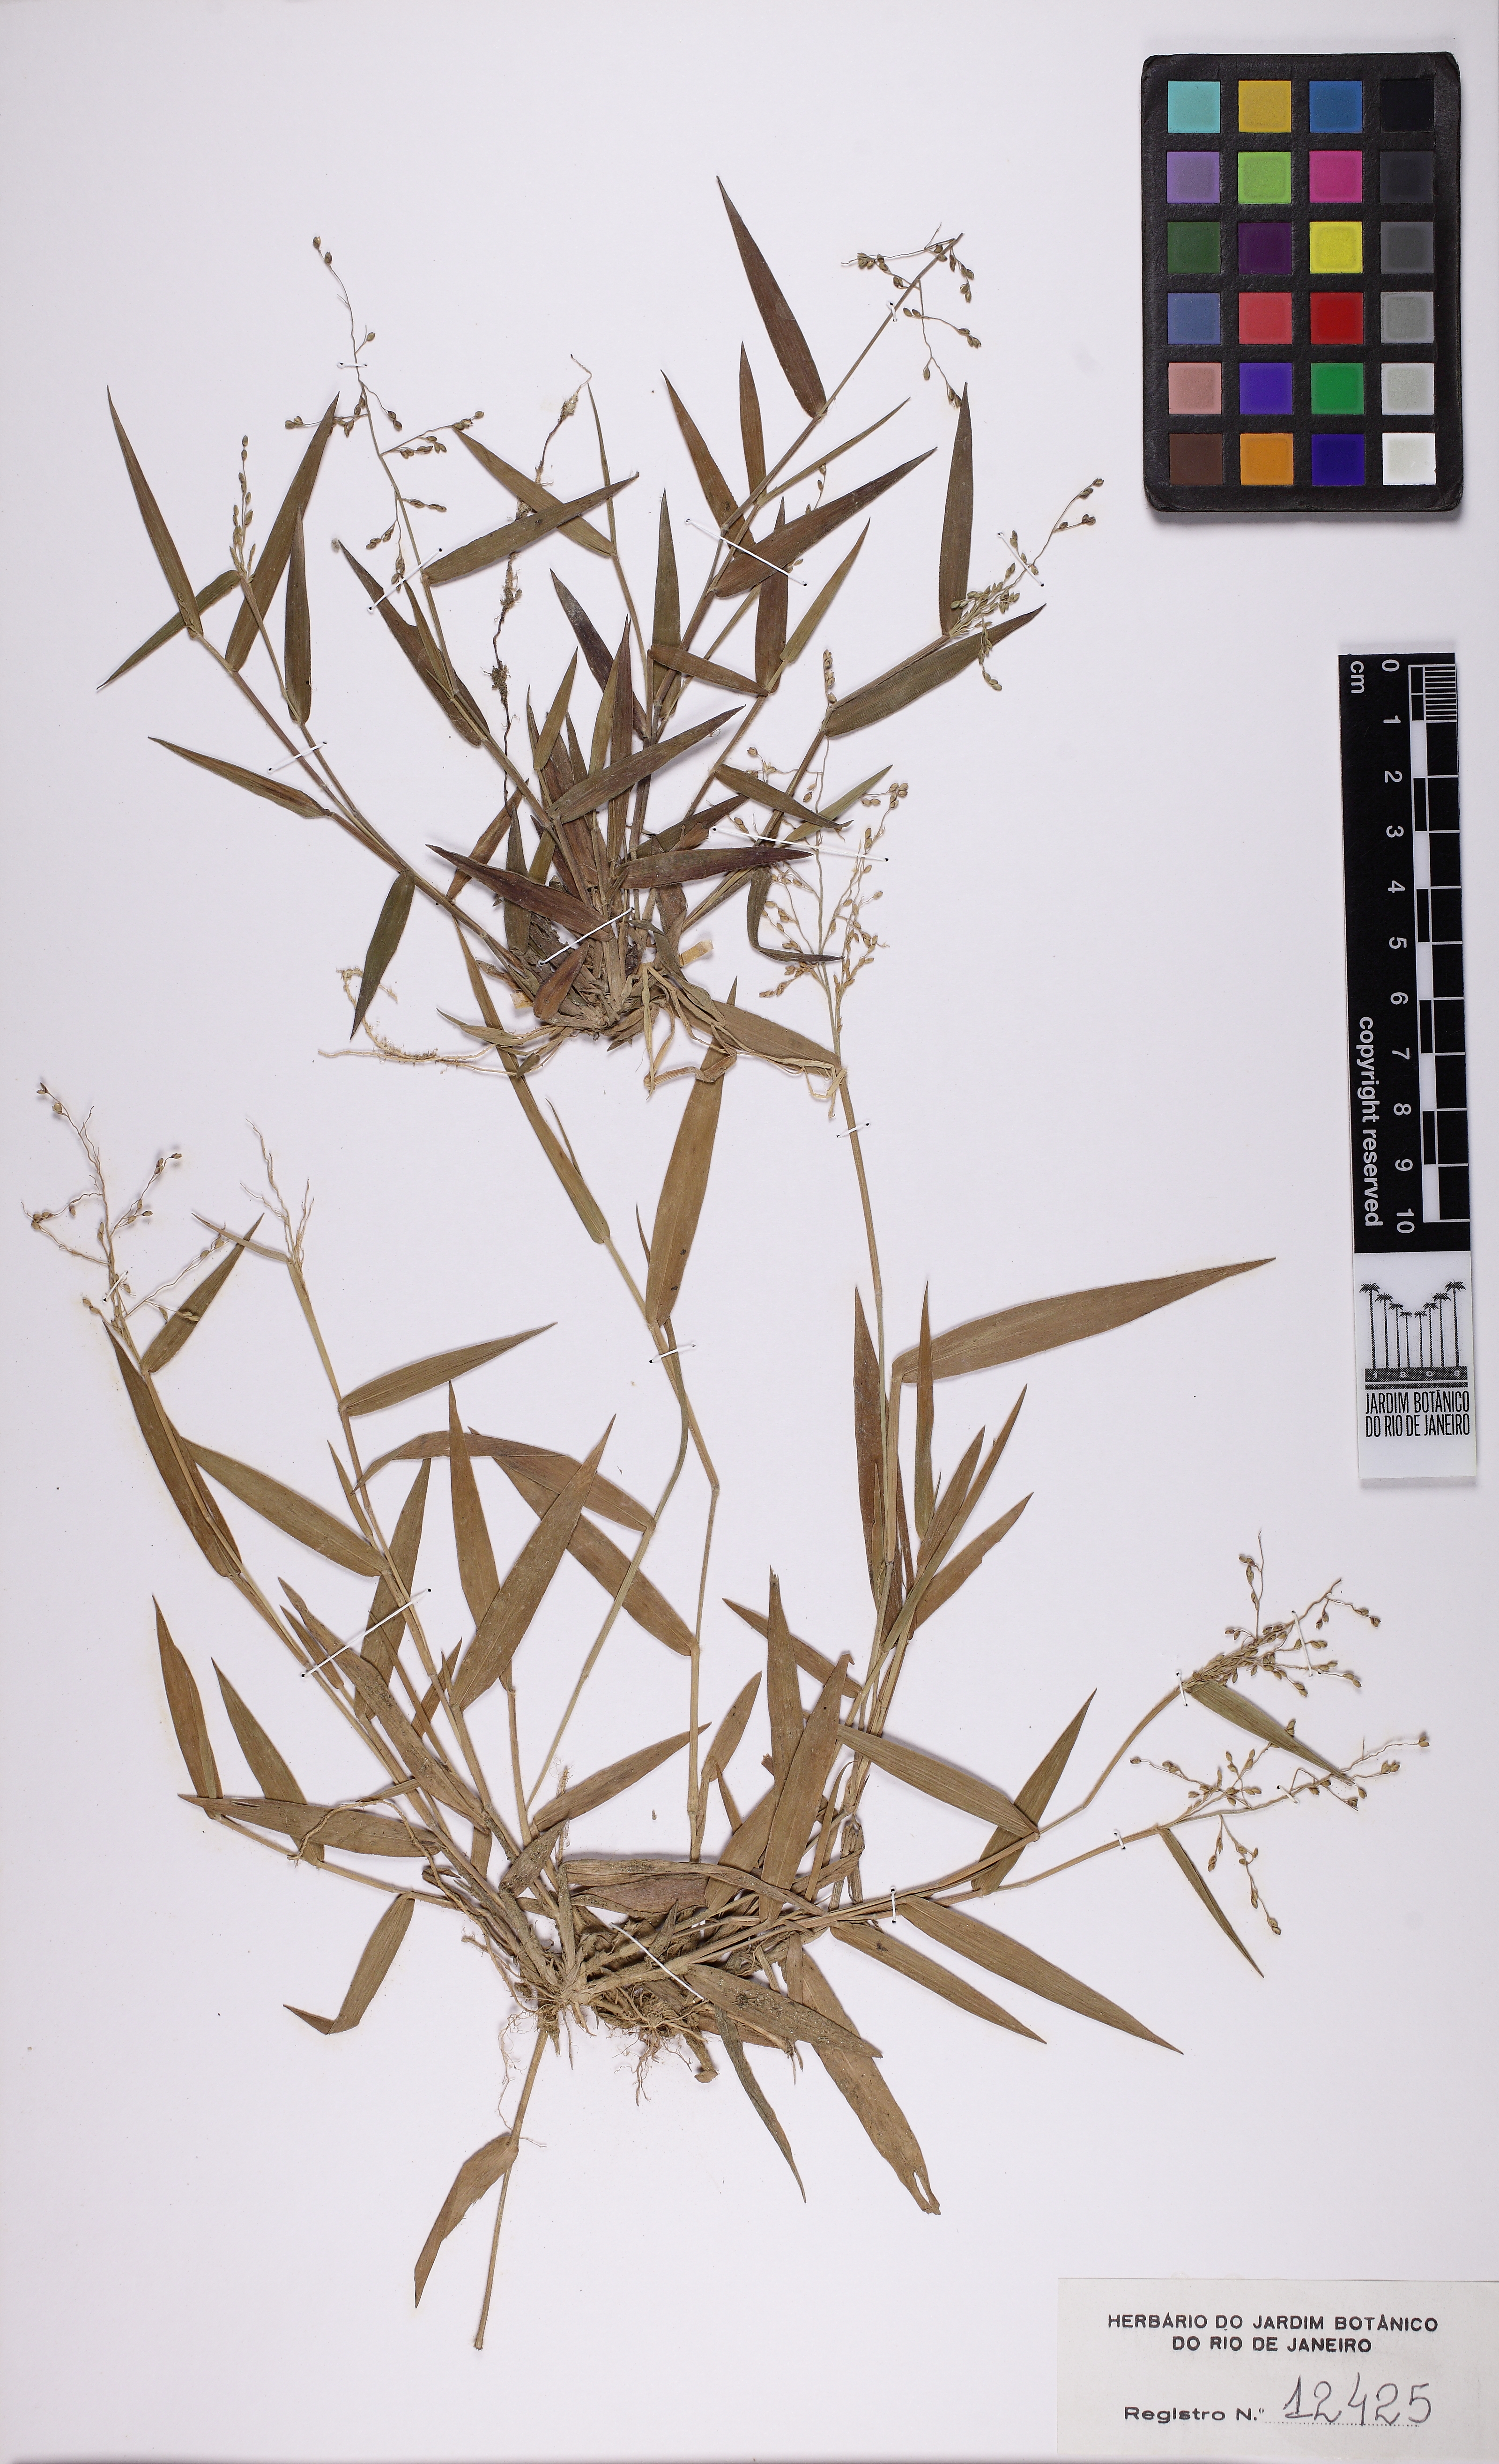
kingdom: Plantae
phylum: Tracheophyta
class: Liliopsida
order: Poales
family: Poaceae
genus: Dichanthelium
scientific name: Dichanthelium sabulorum
